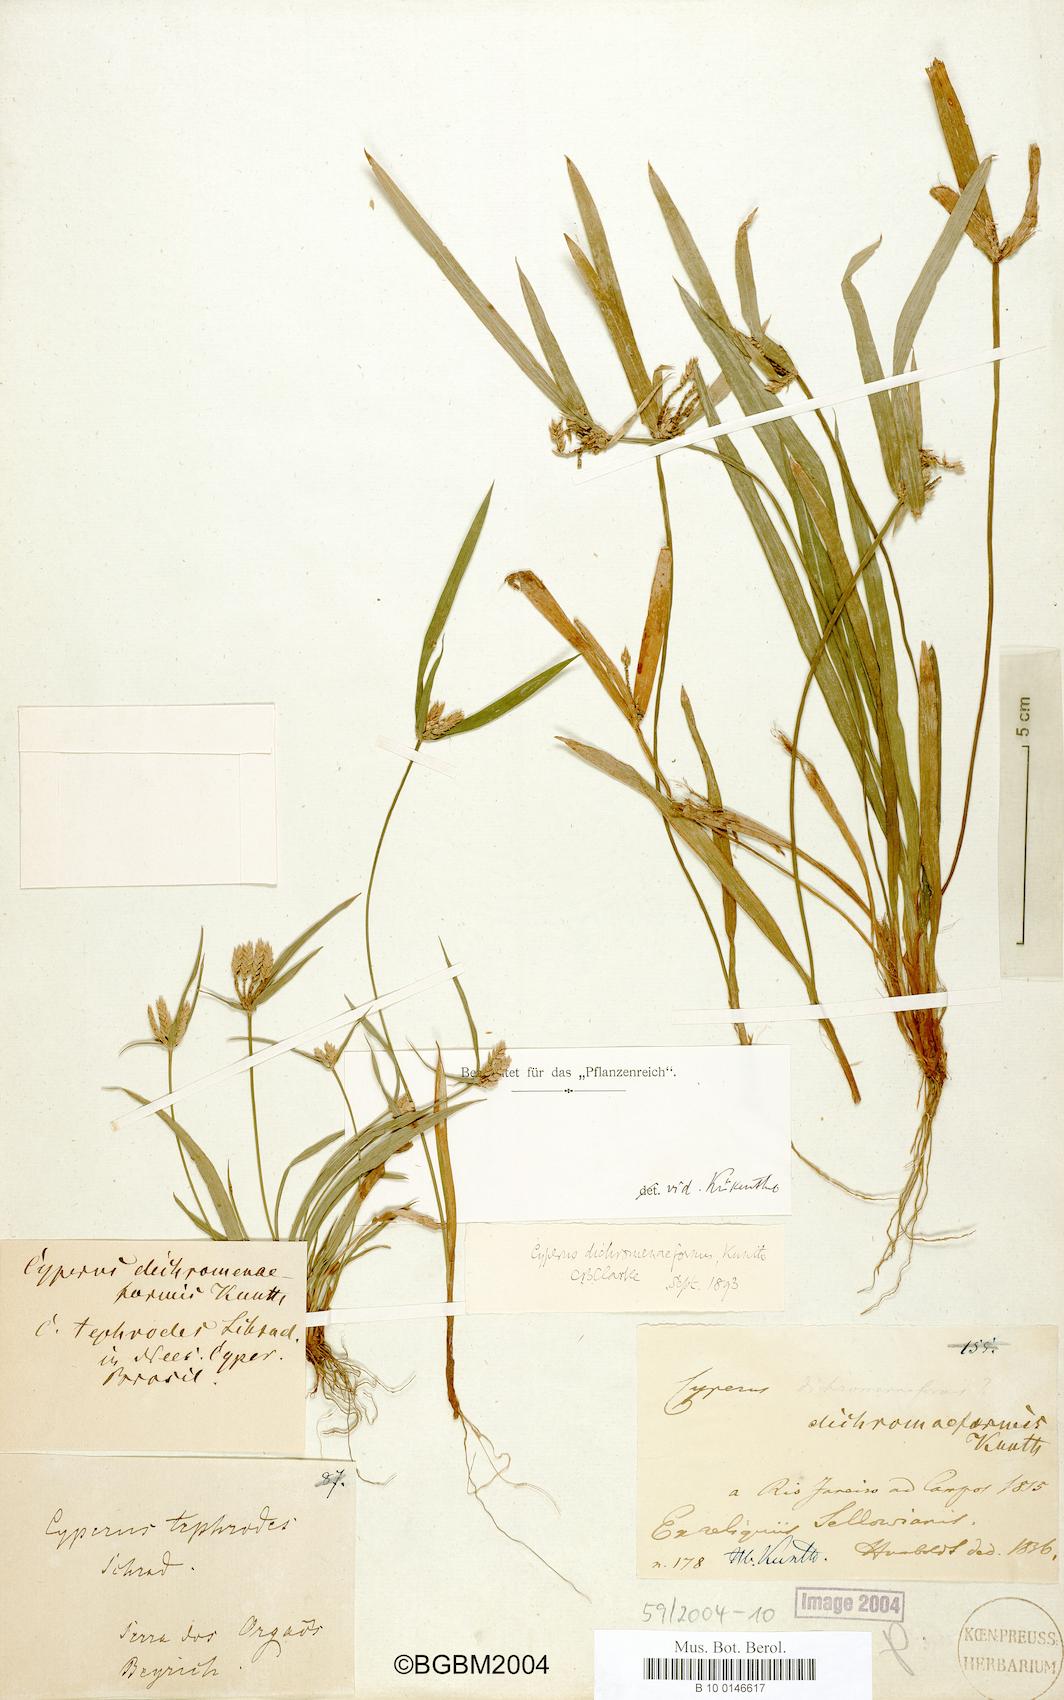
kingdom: Plantae
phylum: Tracheophyta
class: Liliopsida
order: Poales
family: Cyperaceae
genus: Cyperus
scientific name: Cyperus dichromeniformis
